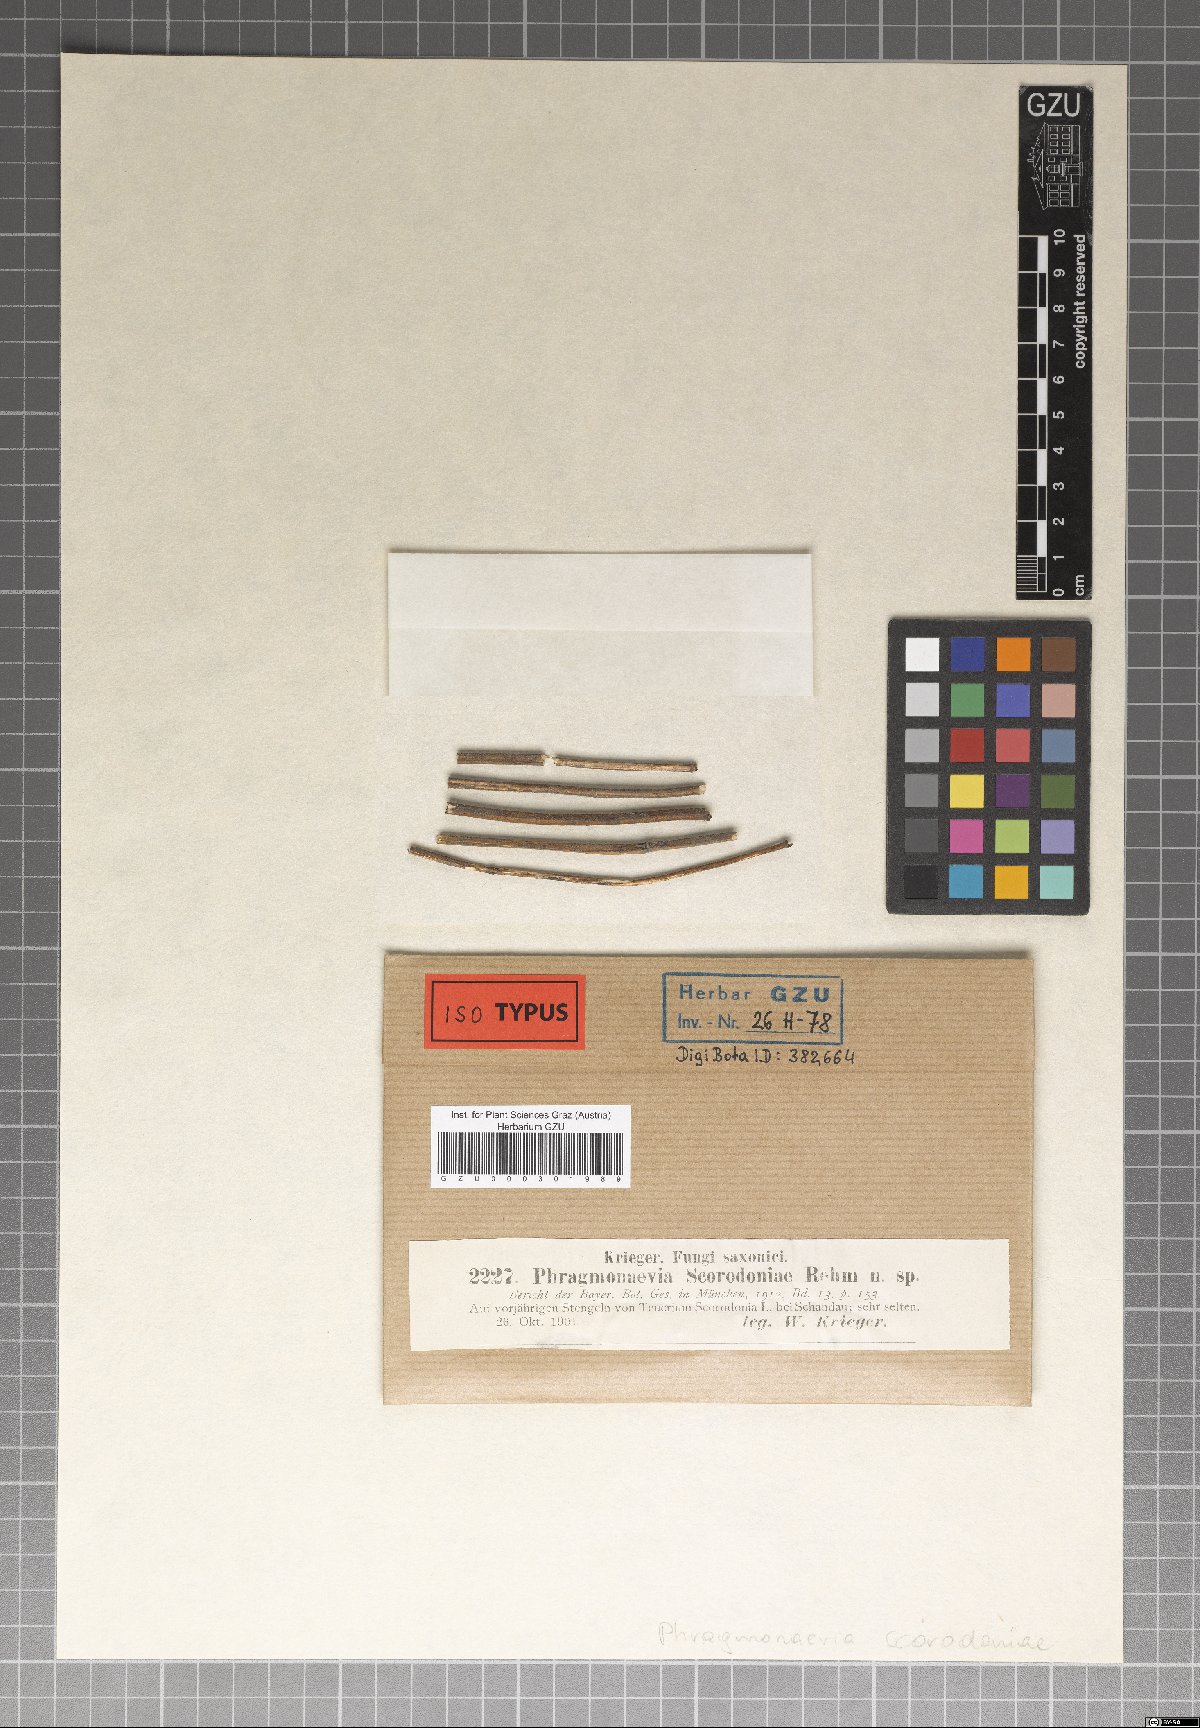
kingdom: Fungi
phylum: Ascomycota
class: Leotiomycetes
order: Helotiales
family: Dermateaceae
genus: Phragmonaevia
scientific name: Phragmonaevia scorodoniae
